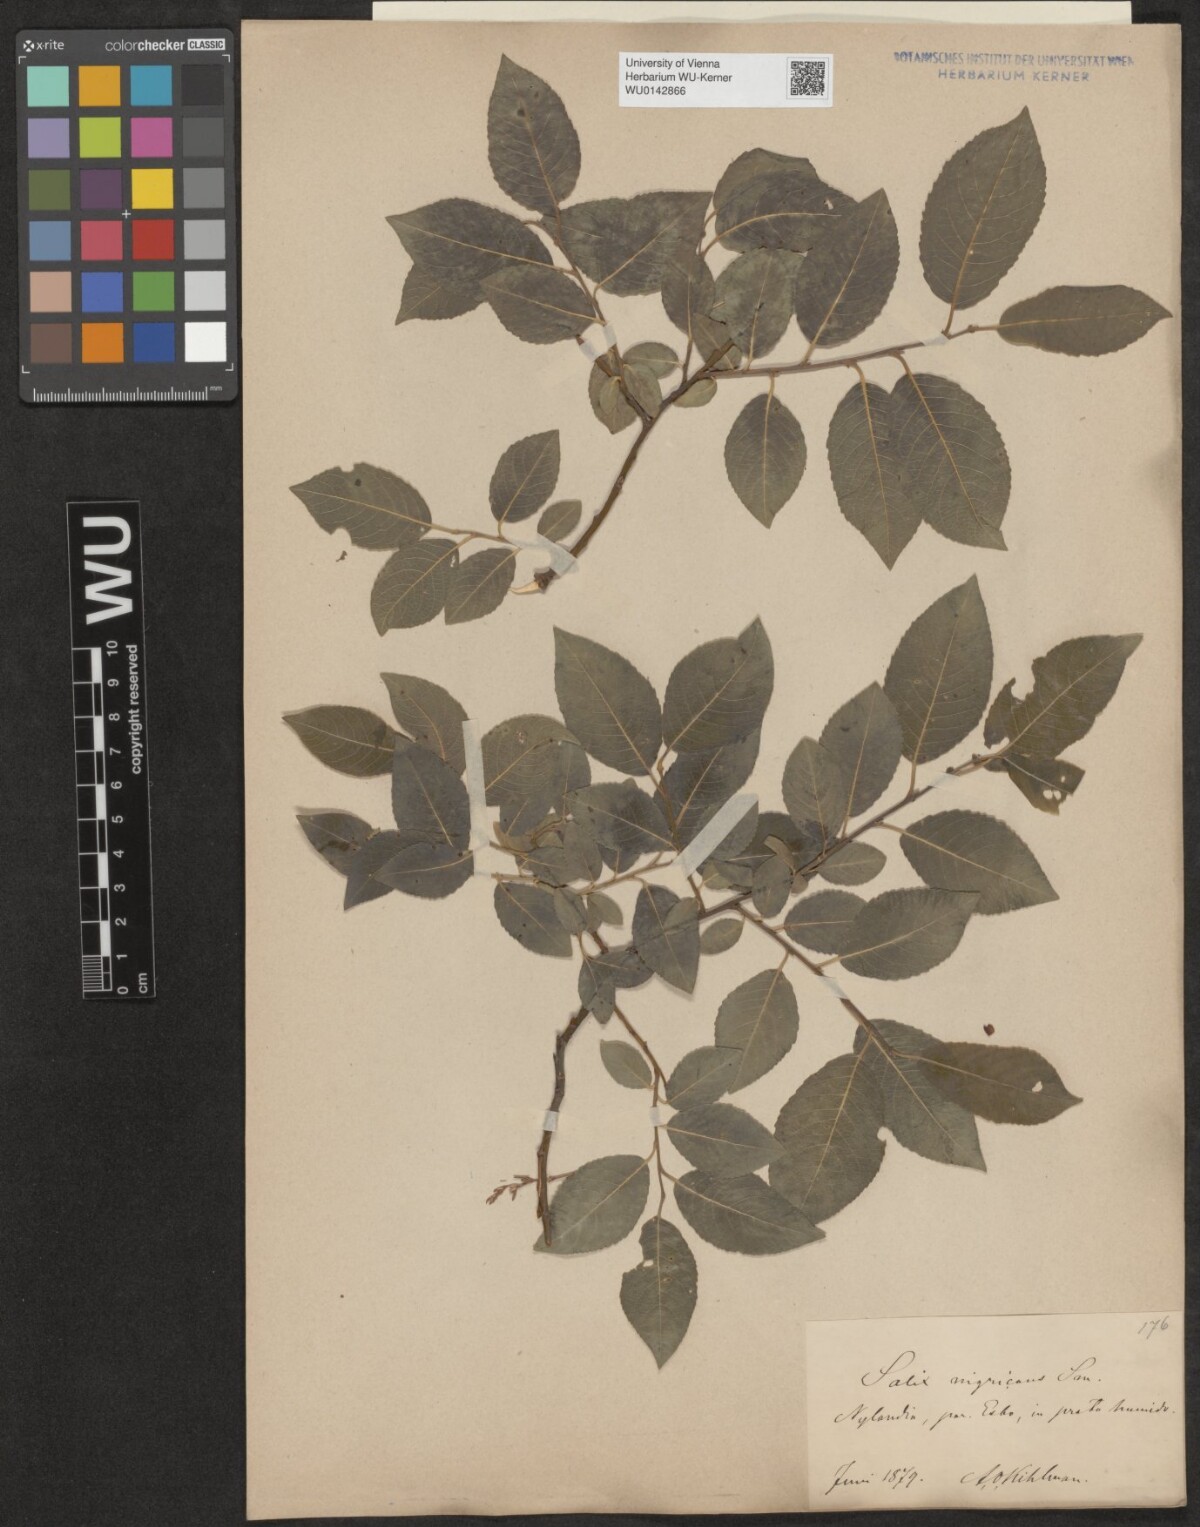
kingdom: Plantae
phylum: Tracheophyta
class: Magnoliopsida
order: Malpighiales
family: Salicaceae
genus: Salix
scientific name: Salix myrsinifolia
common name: Dark-leaved willow
